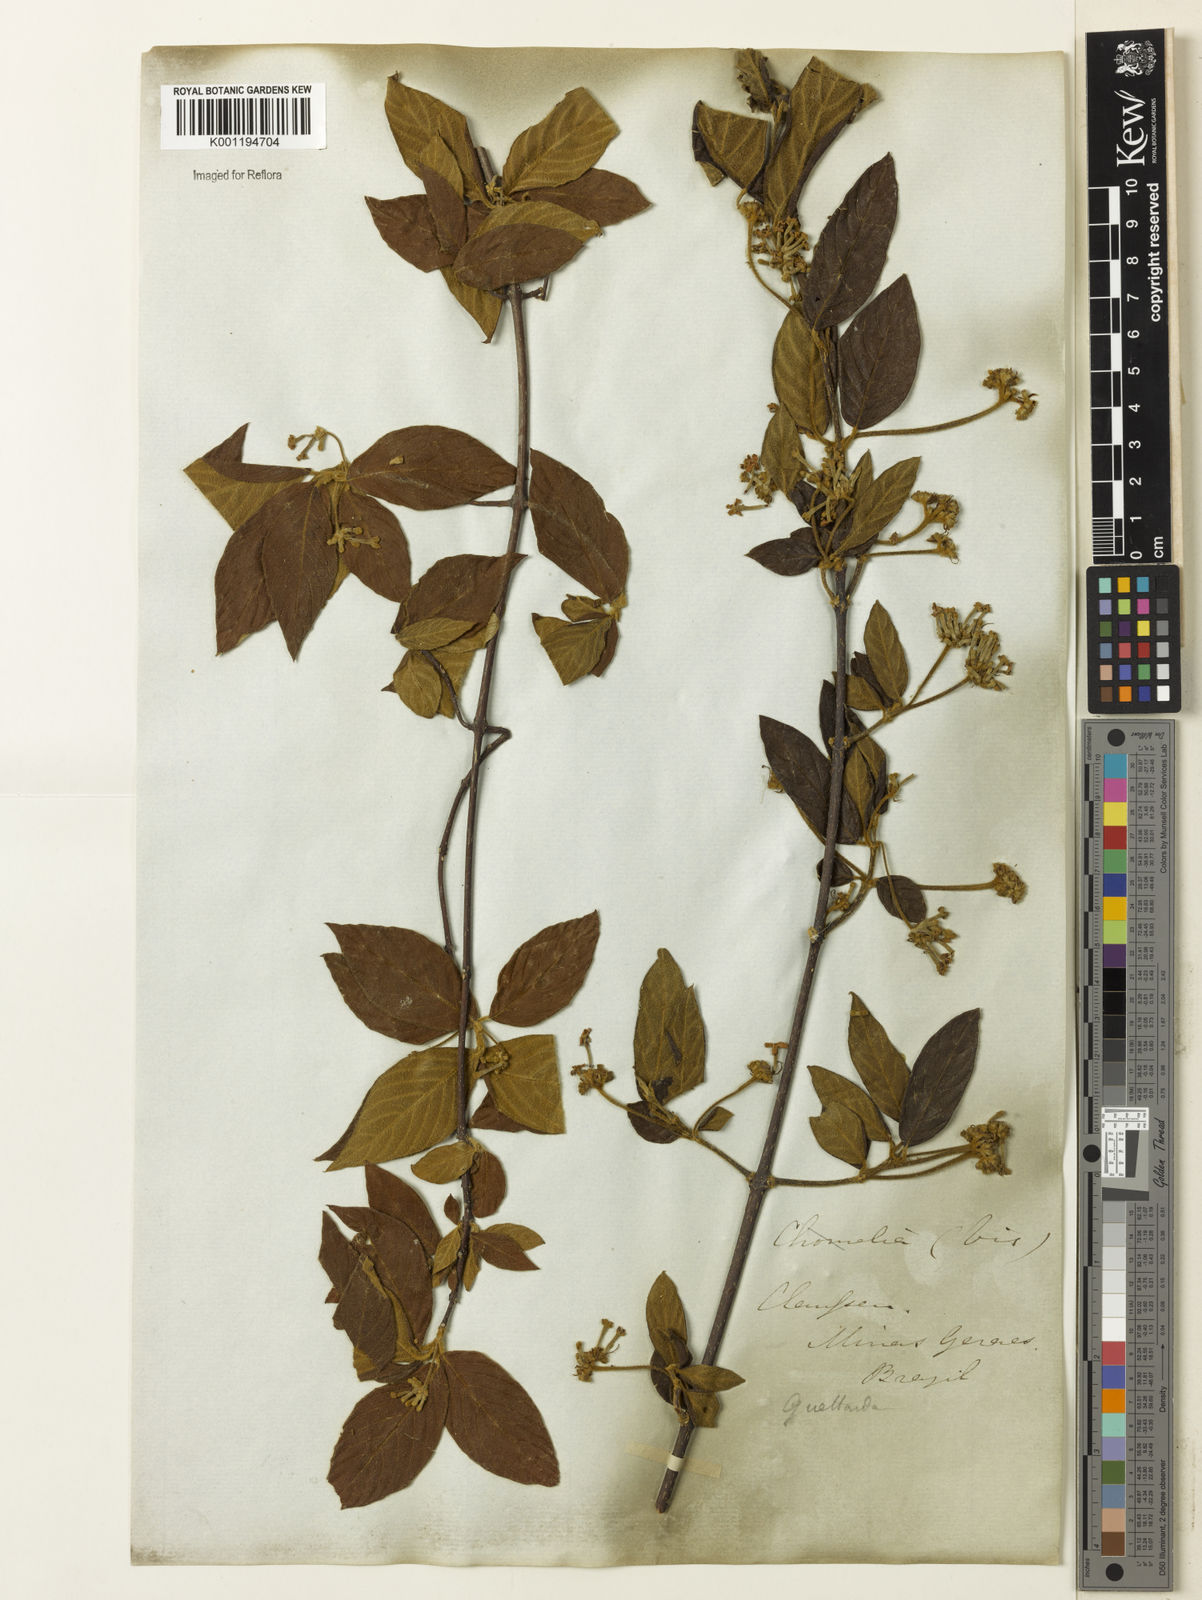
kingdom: Plantae
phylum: Tracheophyta
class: Magnoliopsida
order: Gentianales
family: Rubiaceae
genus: Guettarda
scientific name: Guettarda uruguensis
